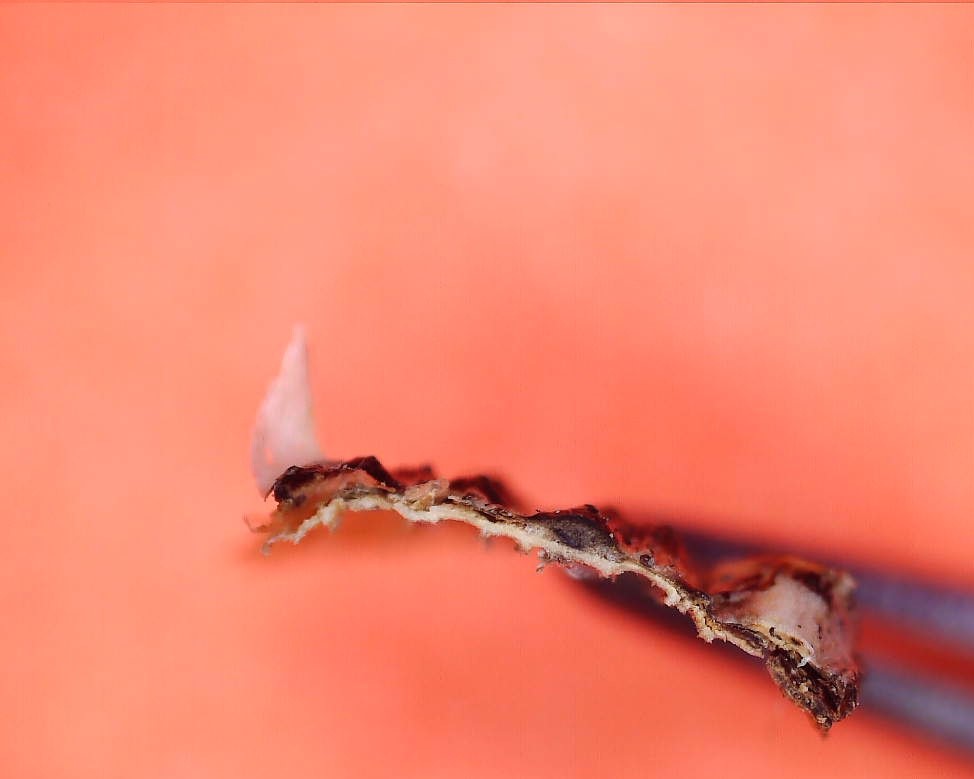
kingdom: Fungi
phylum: Ascomycota
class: Sordariomycetes
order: Amphisphaeriales
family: Clypeosphaeriaceae
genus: Clypeosphaeria
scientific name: Clypeosphaeria mamillana
